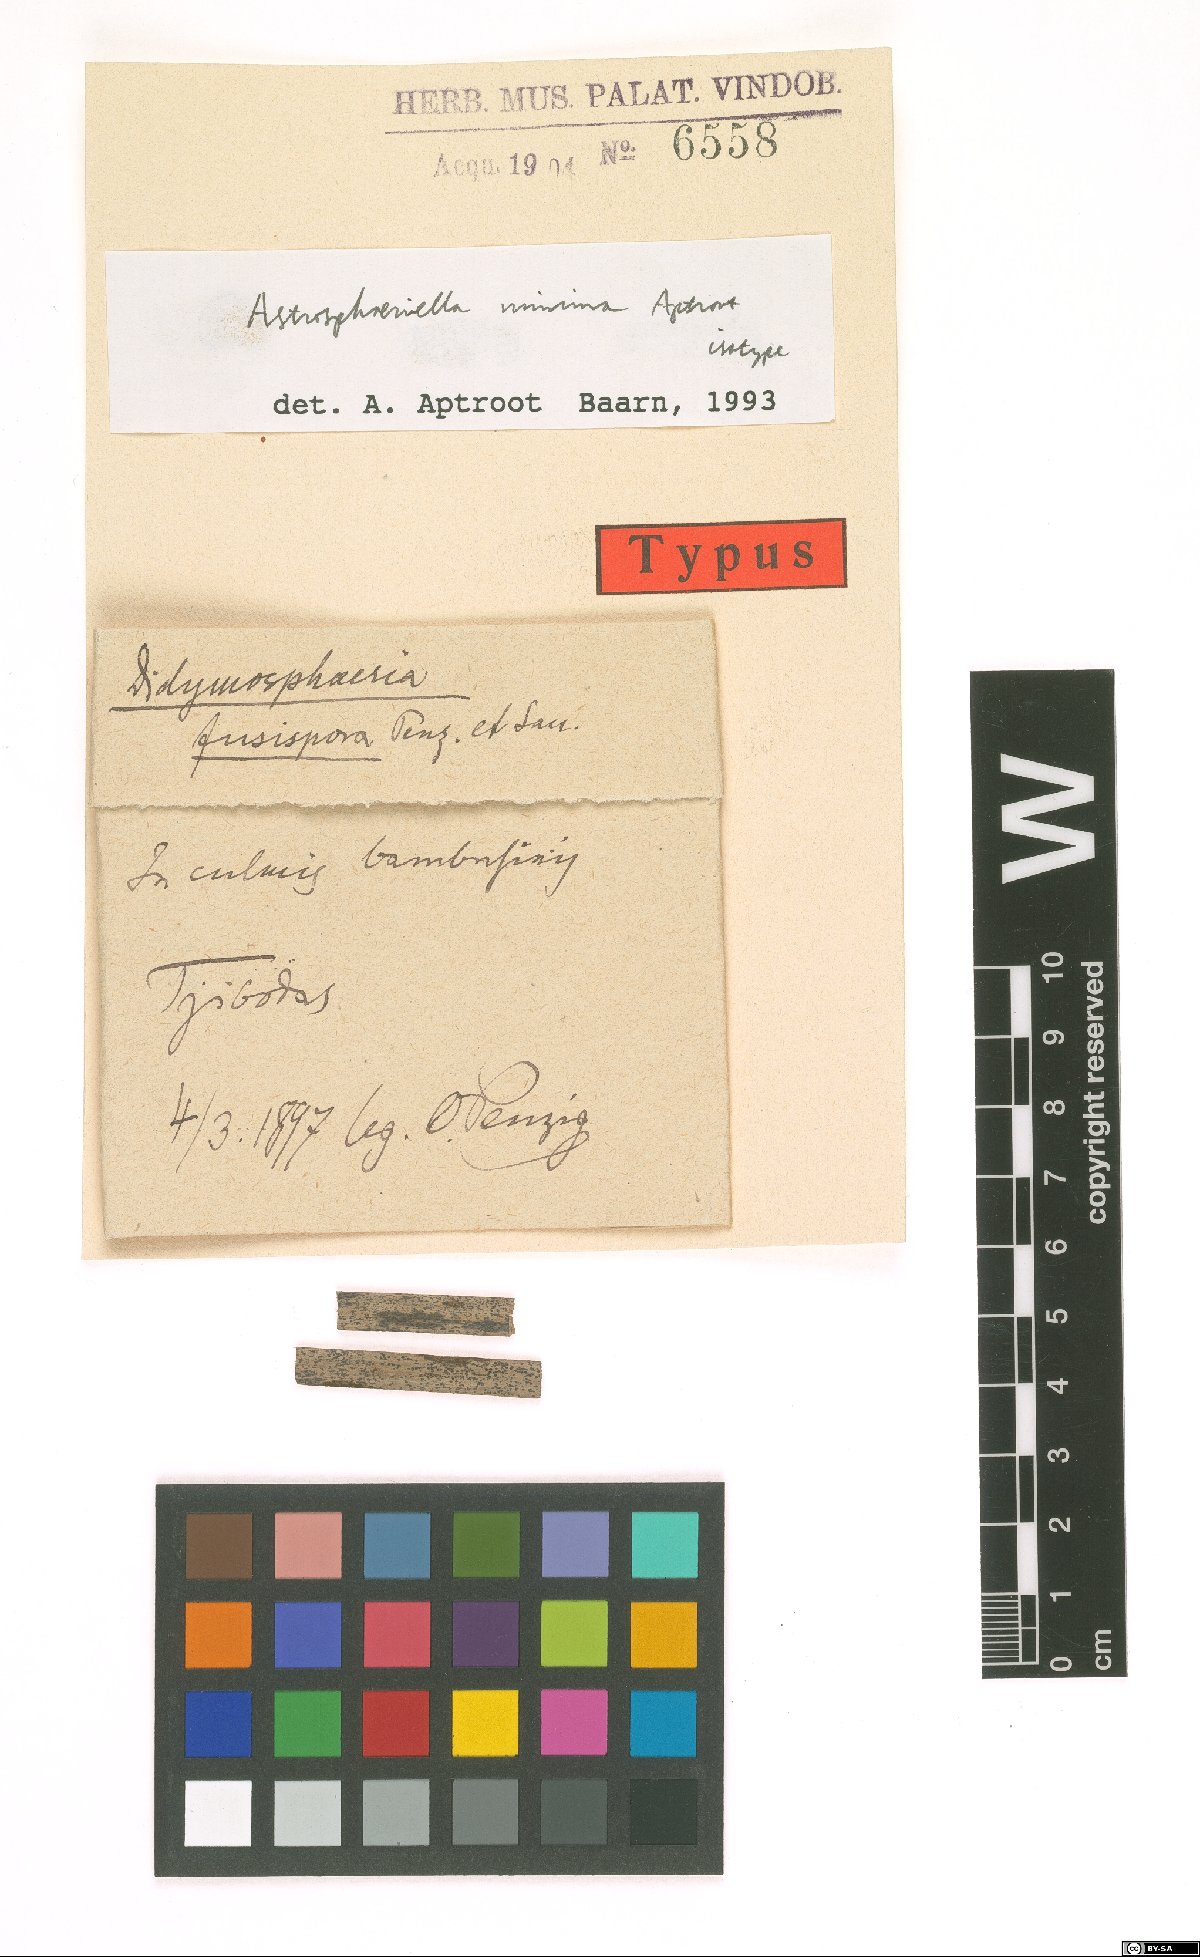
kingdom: Fungi
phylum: Ascomycota
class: Dothideomycetes
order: Pleosporales
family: Astrosphaeriellaceae
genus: Astrosphaeriella
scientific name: Astrosphaeriella minima
